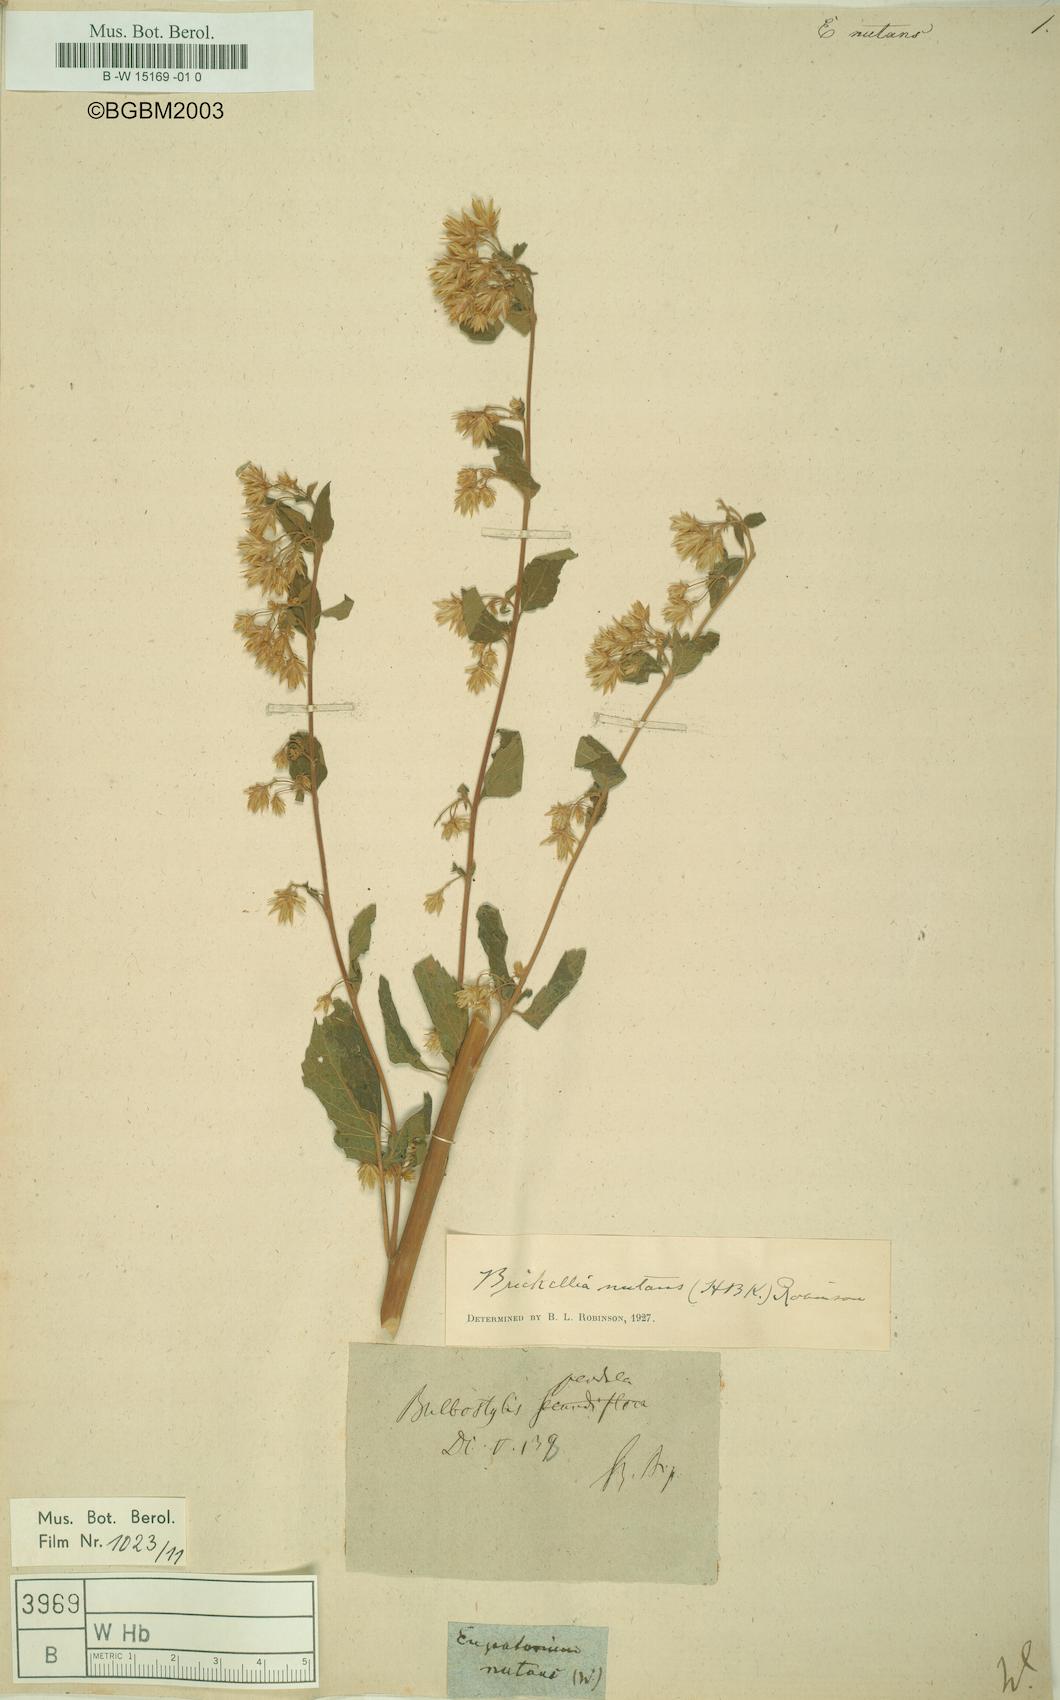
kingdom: Plantae
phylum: Tracheophyta
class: Magnoliopsida
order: Asterales
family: Asteraceae
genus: Brickellia
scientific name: Brickellia nutanticeps
